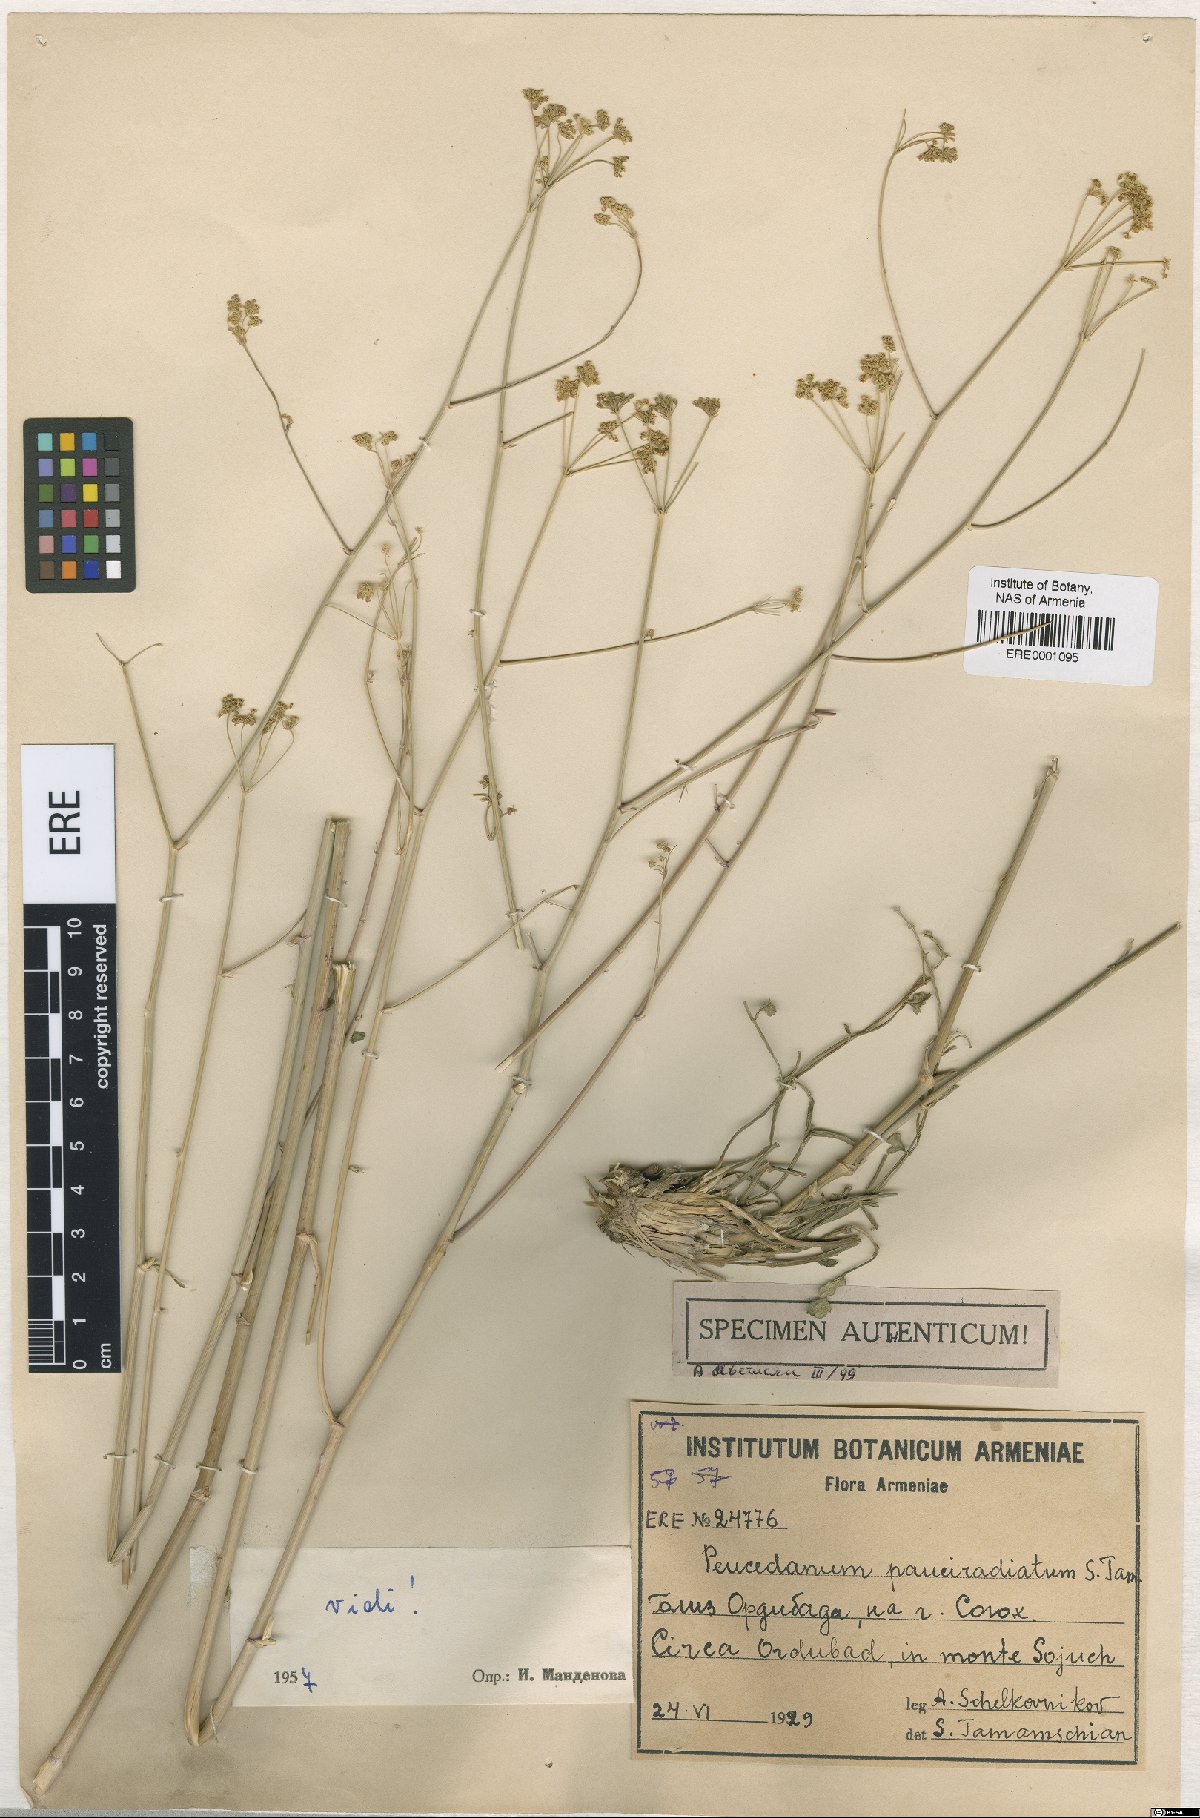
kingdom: Plantae
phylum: Tracheophyta
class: Magnoliopsida
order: Apiales
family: Apiaceae
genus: Zeravschania
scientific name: Zeravschania pauciradiata
